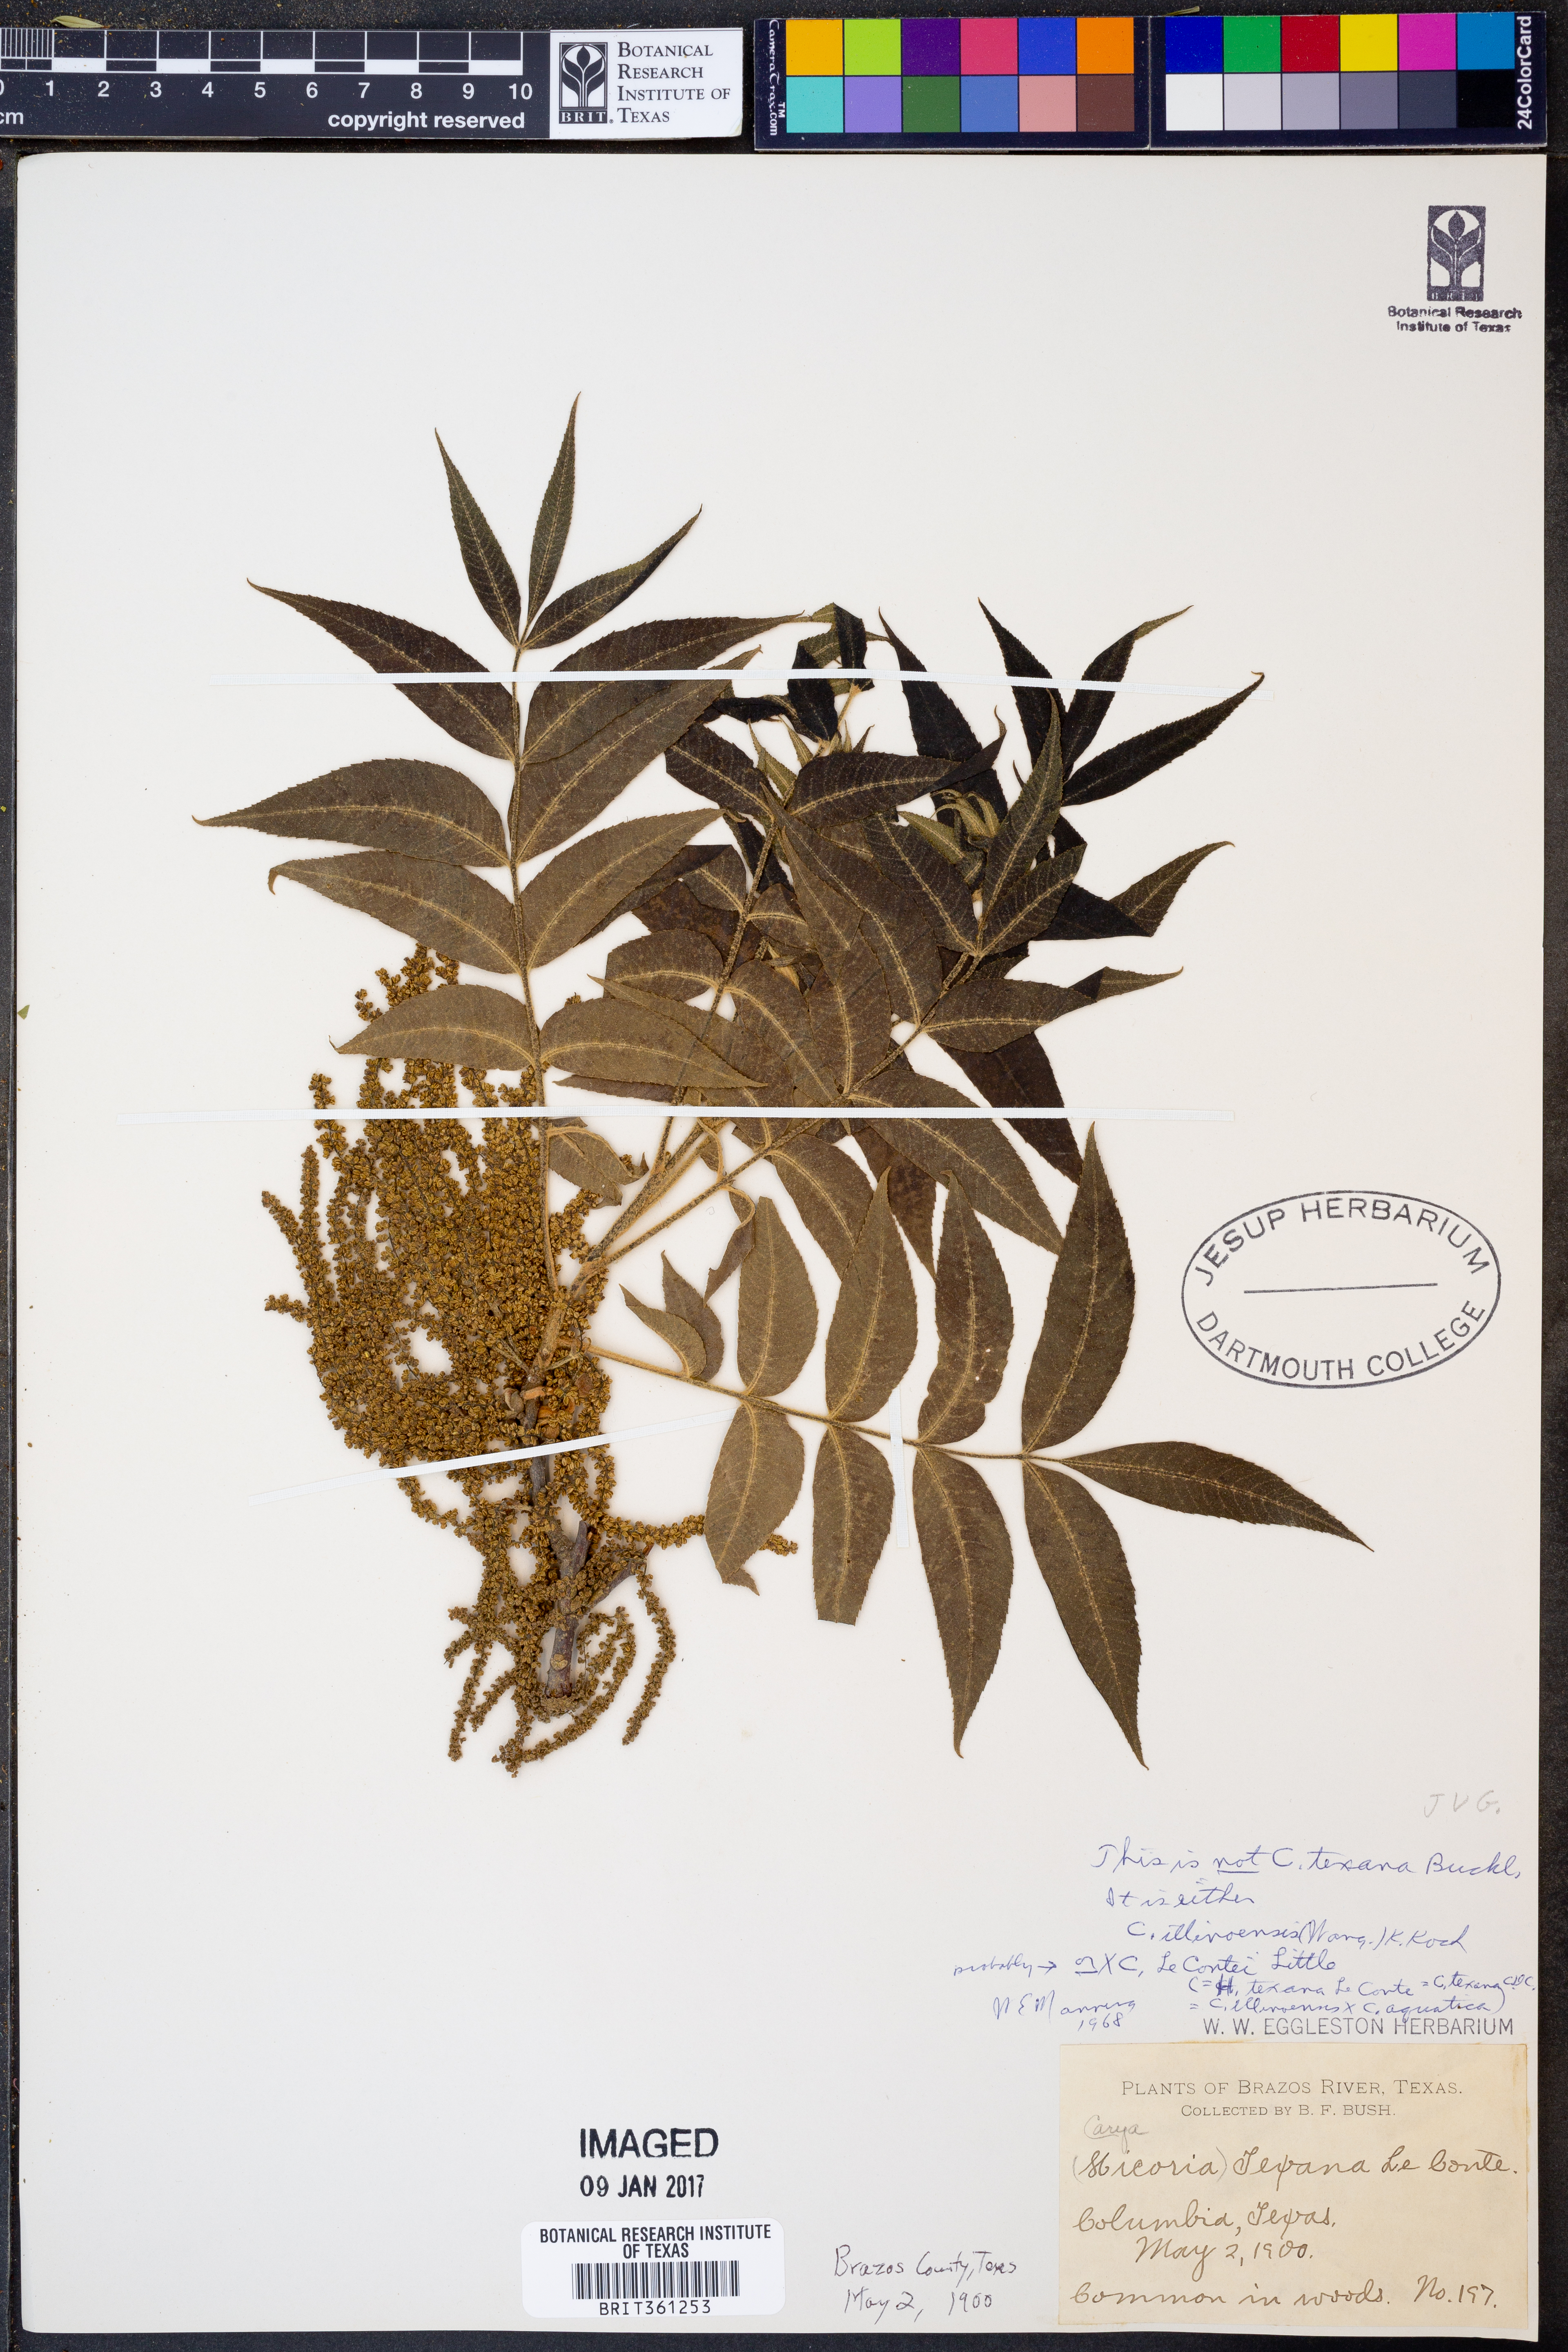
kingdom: Plantae
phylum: Tracheophyta
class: Magnoliopsida
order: Fagales
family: Juglandaceae
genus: Carya
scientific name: Carya
